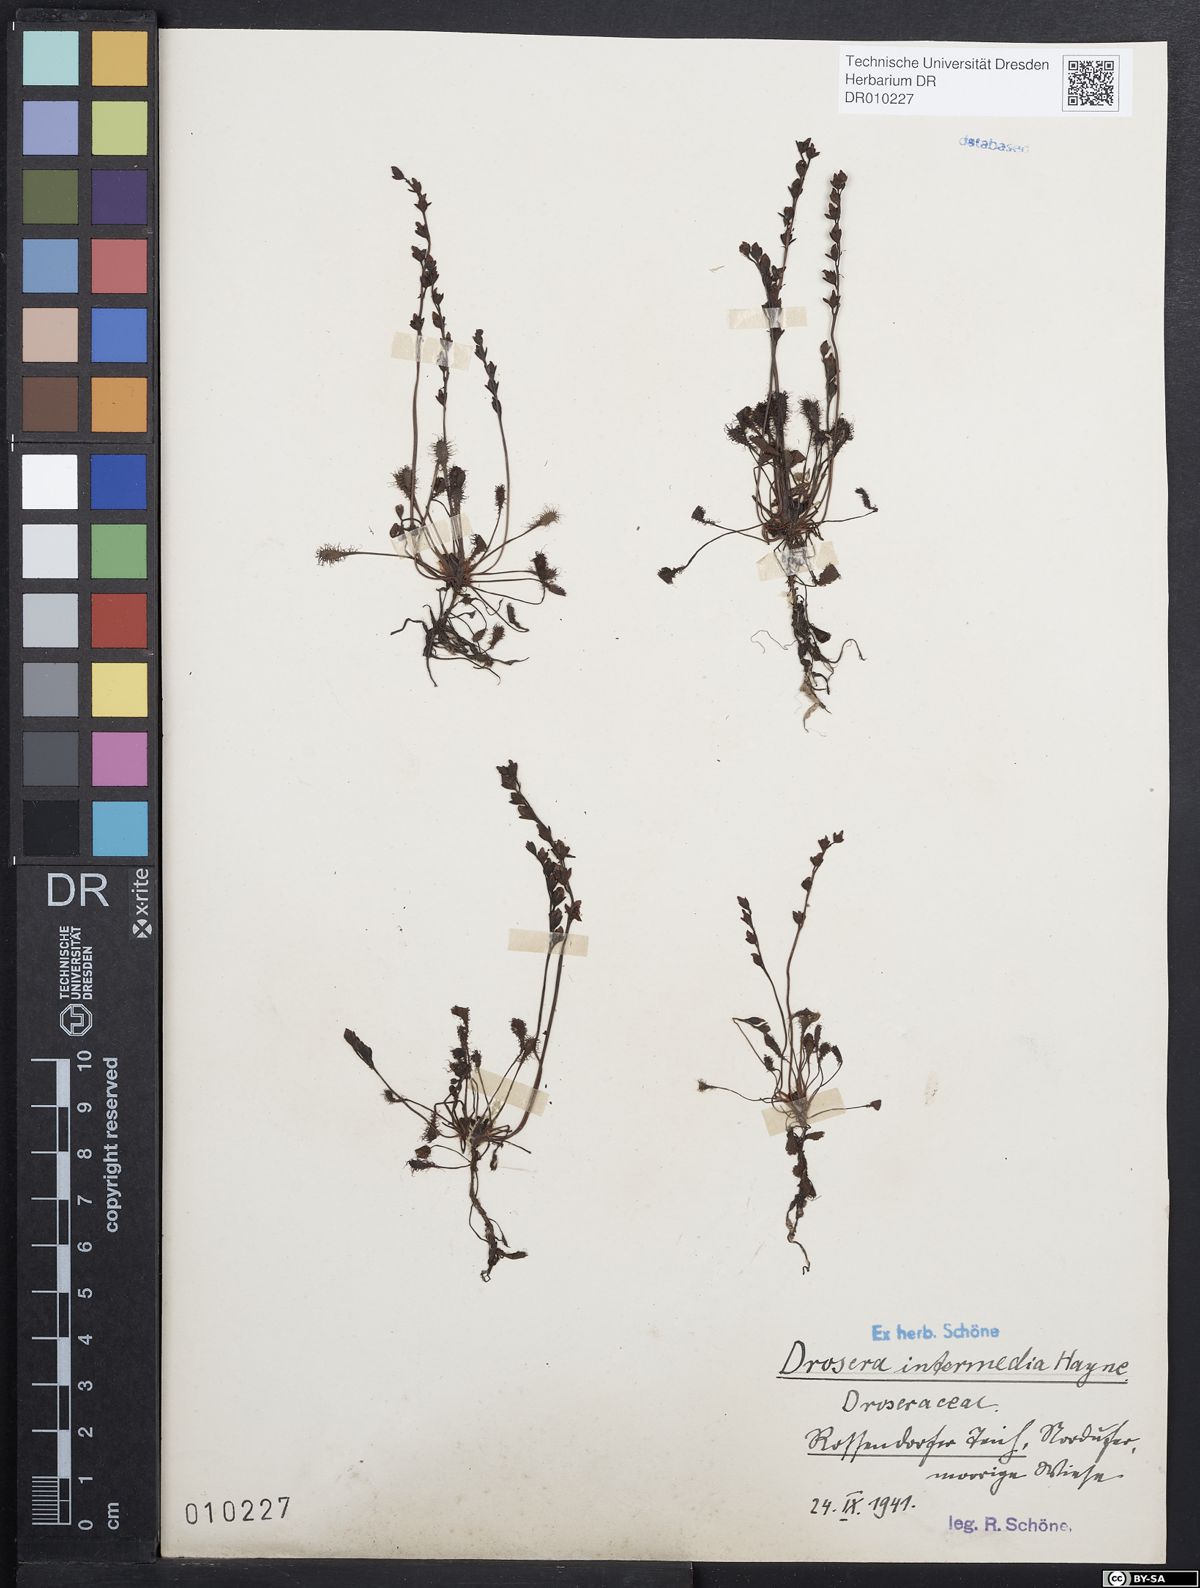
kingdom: Plantae
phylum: Tracheophyta
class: Magnoliopsida
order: Caryophyllales
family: Droseraceae
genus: Drosera
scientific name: Drosera intermedia
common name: Oblong-leaved sundew
